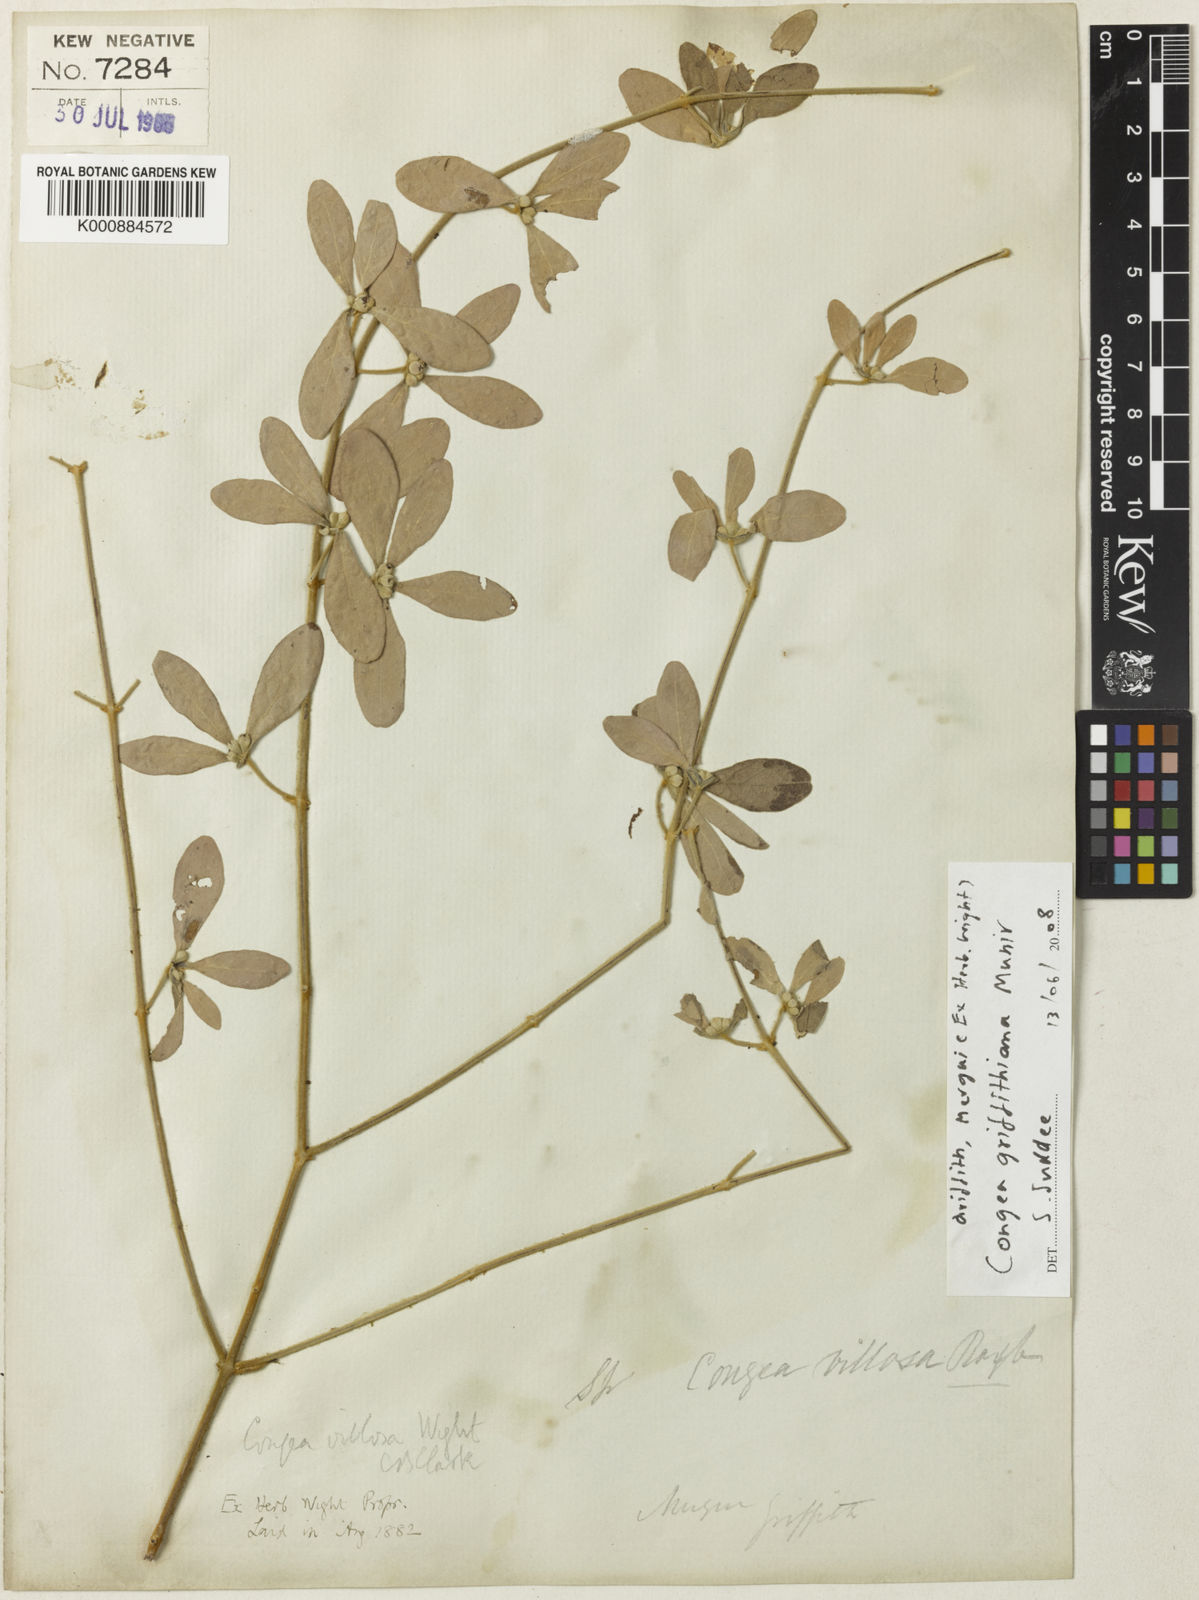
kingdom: Plantae
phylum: Tracheophyta
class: Magnoliopsida
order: Lamiales
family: Lamiaceae
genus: Congea
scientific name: Congea griffithiana
